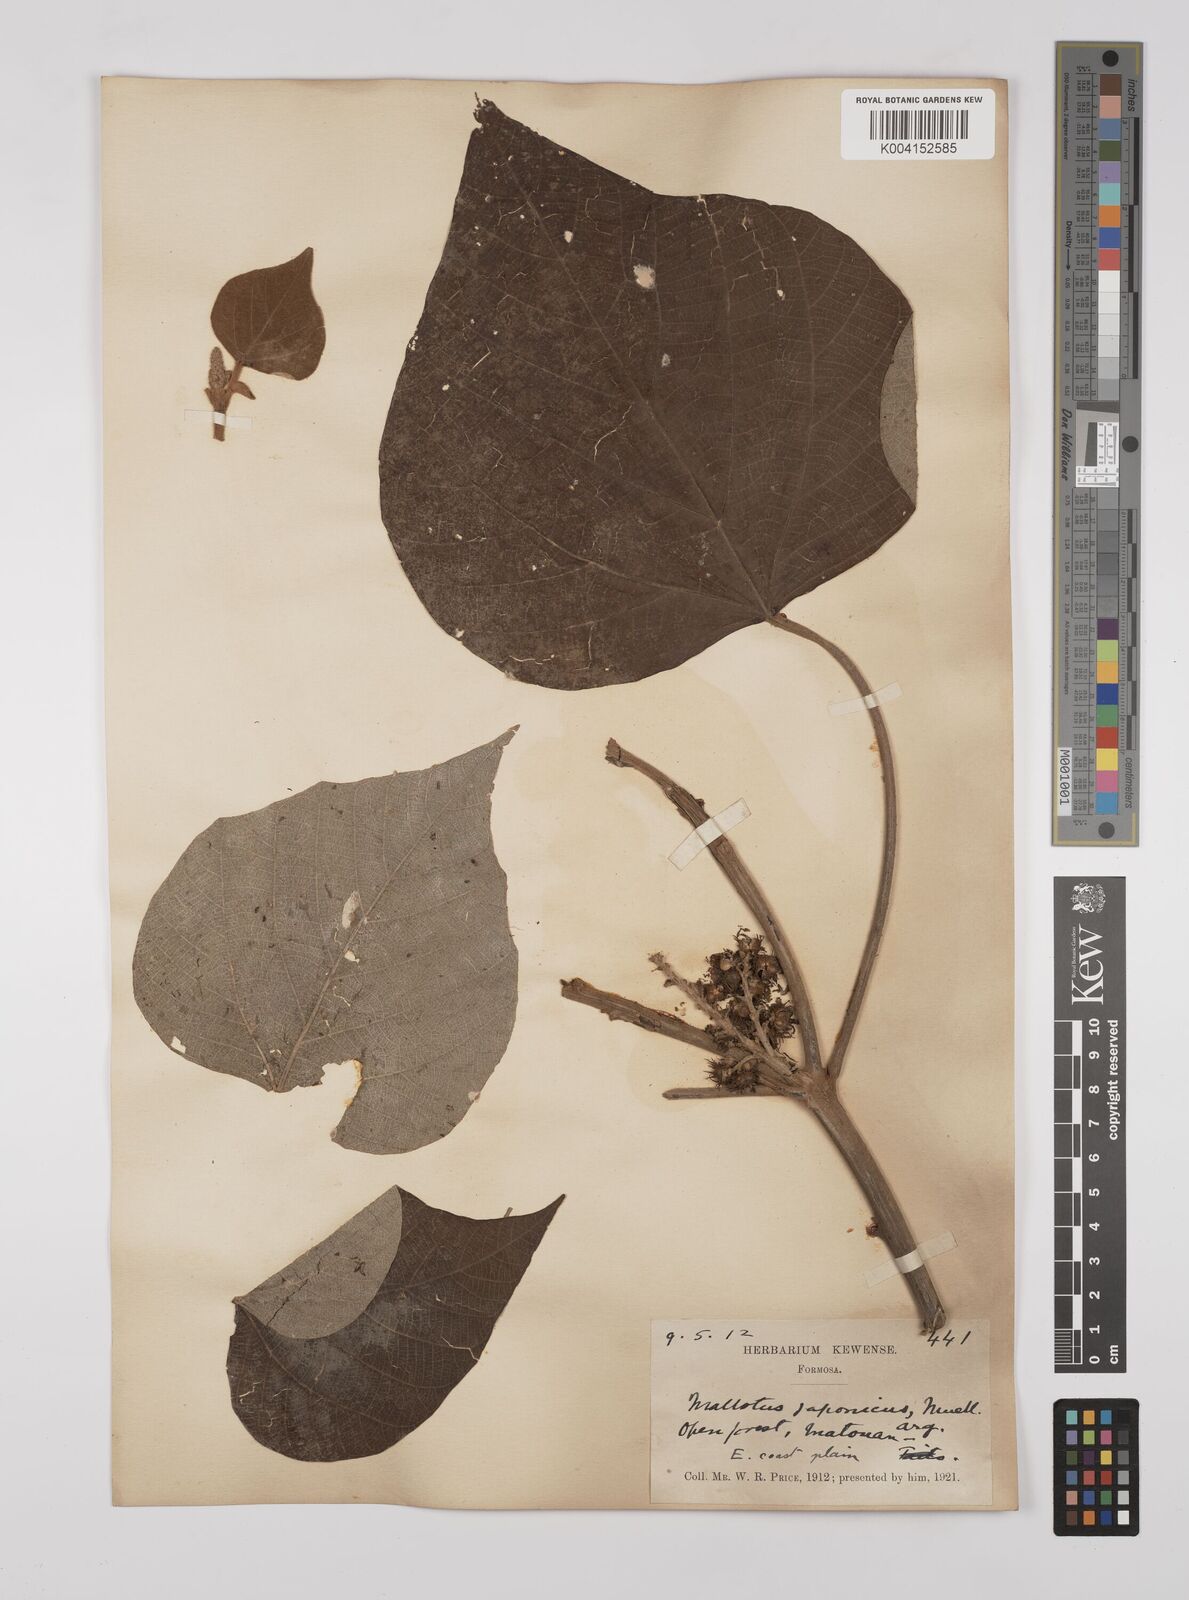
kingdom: Plantae
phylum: Tracheophyta
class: Magnoliopsida
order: Malpighiales
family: Euphorbiaceae
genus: Mallotus
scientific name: Mallotus japonicus
